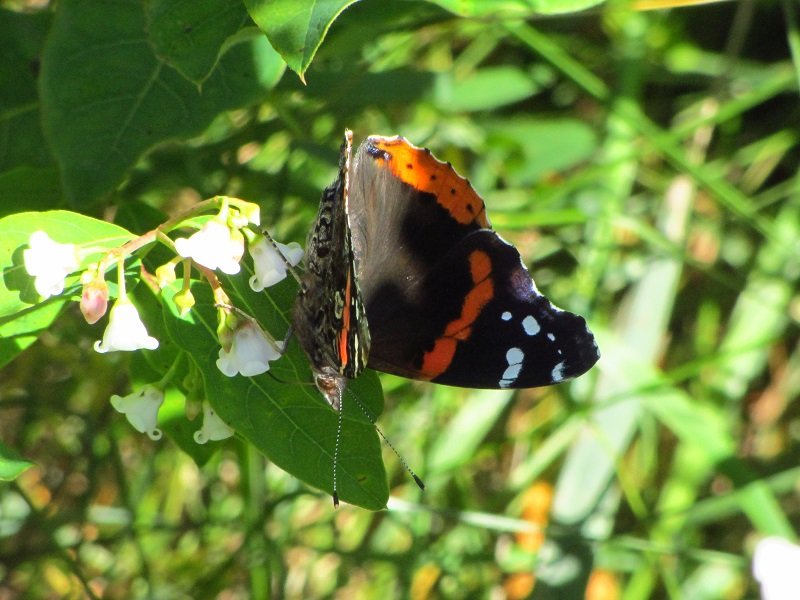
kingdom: Animalia
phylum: Arthropoda
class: Insecta
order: Lepidoptera
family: Nymphalidae
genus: Vanessa
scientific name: Vanessa atalanta
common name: Red Admiral
